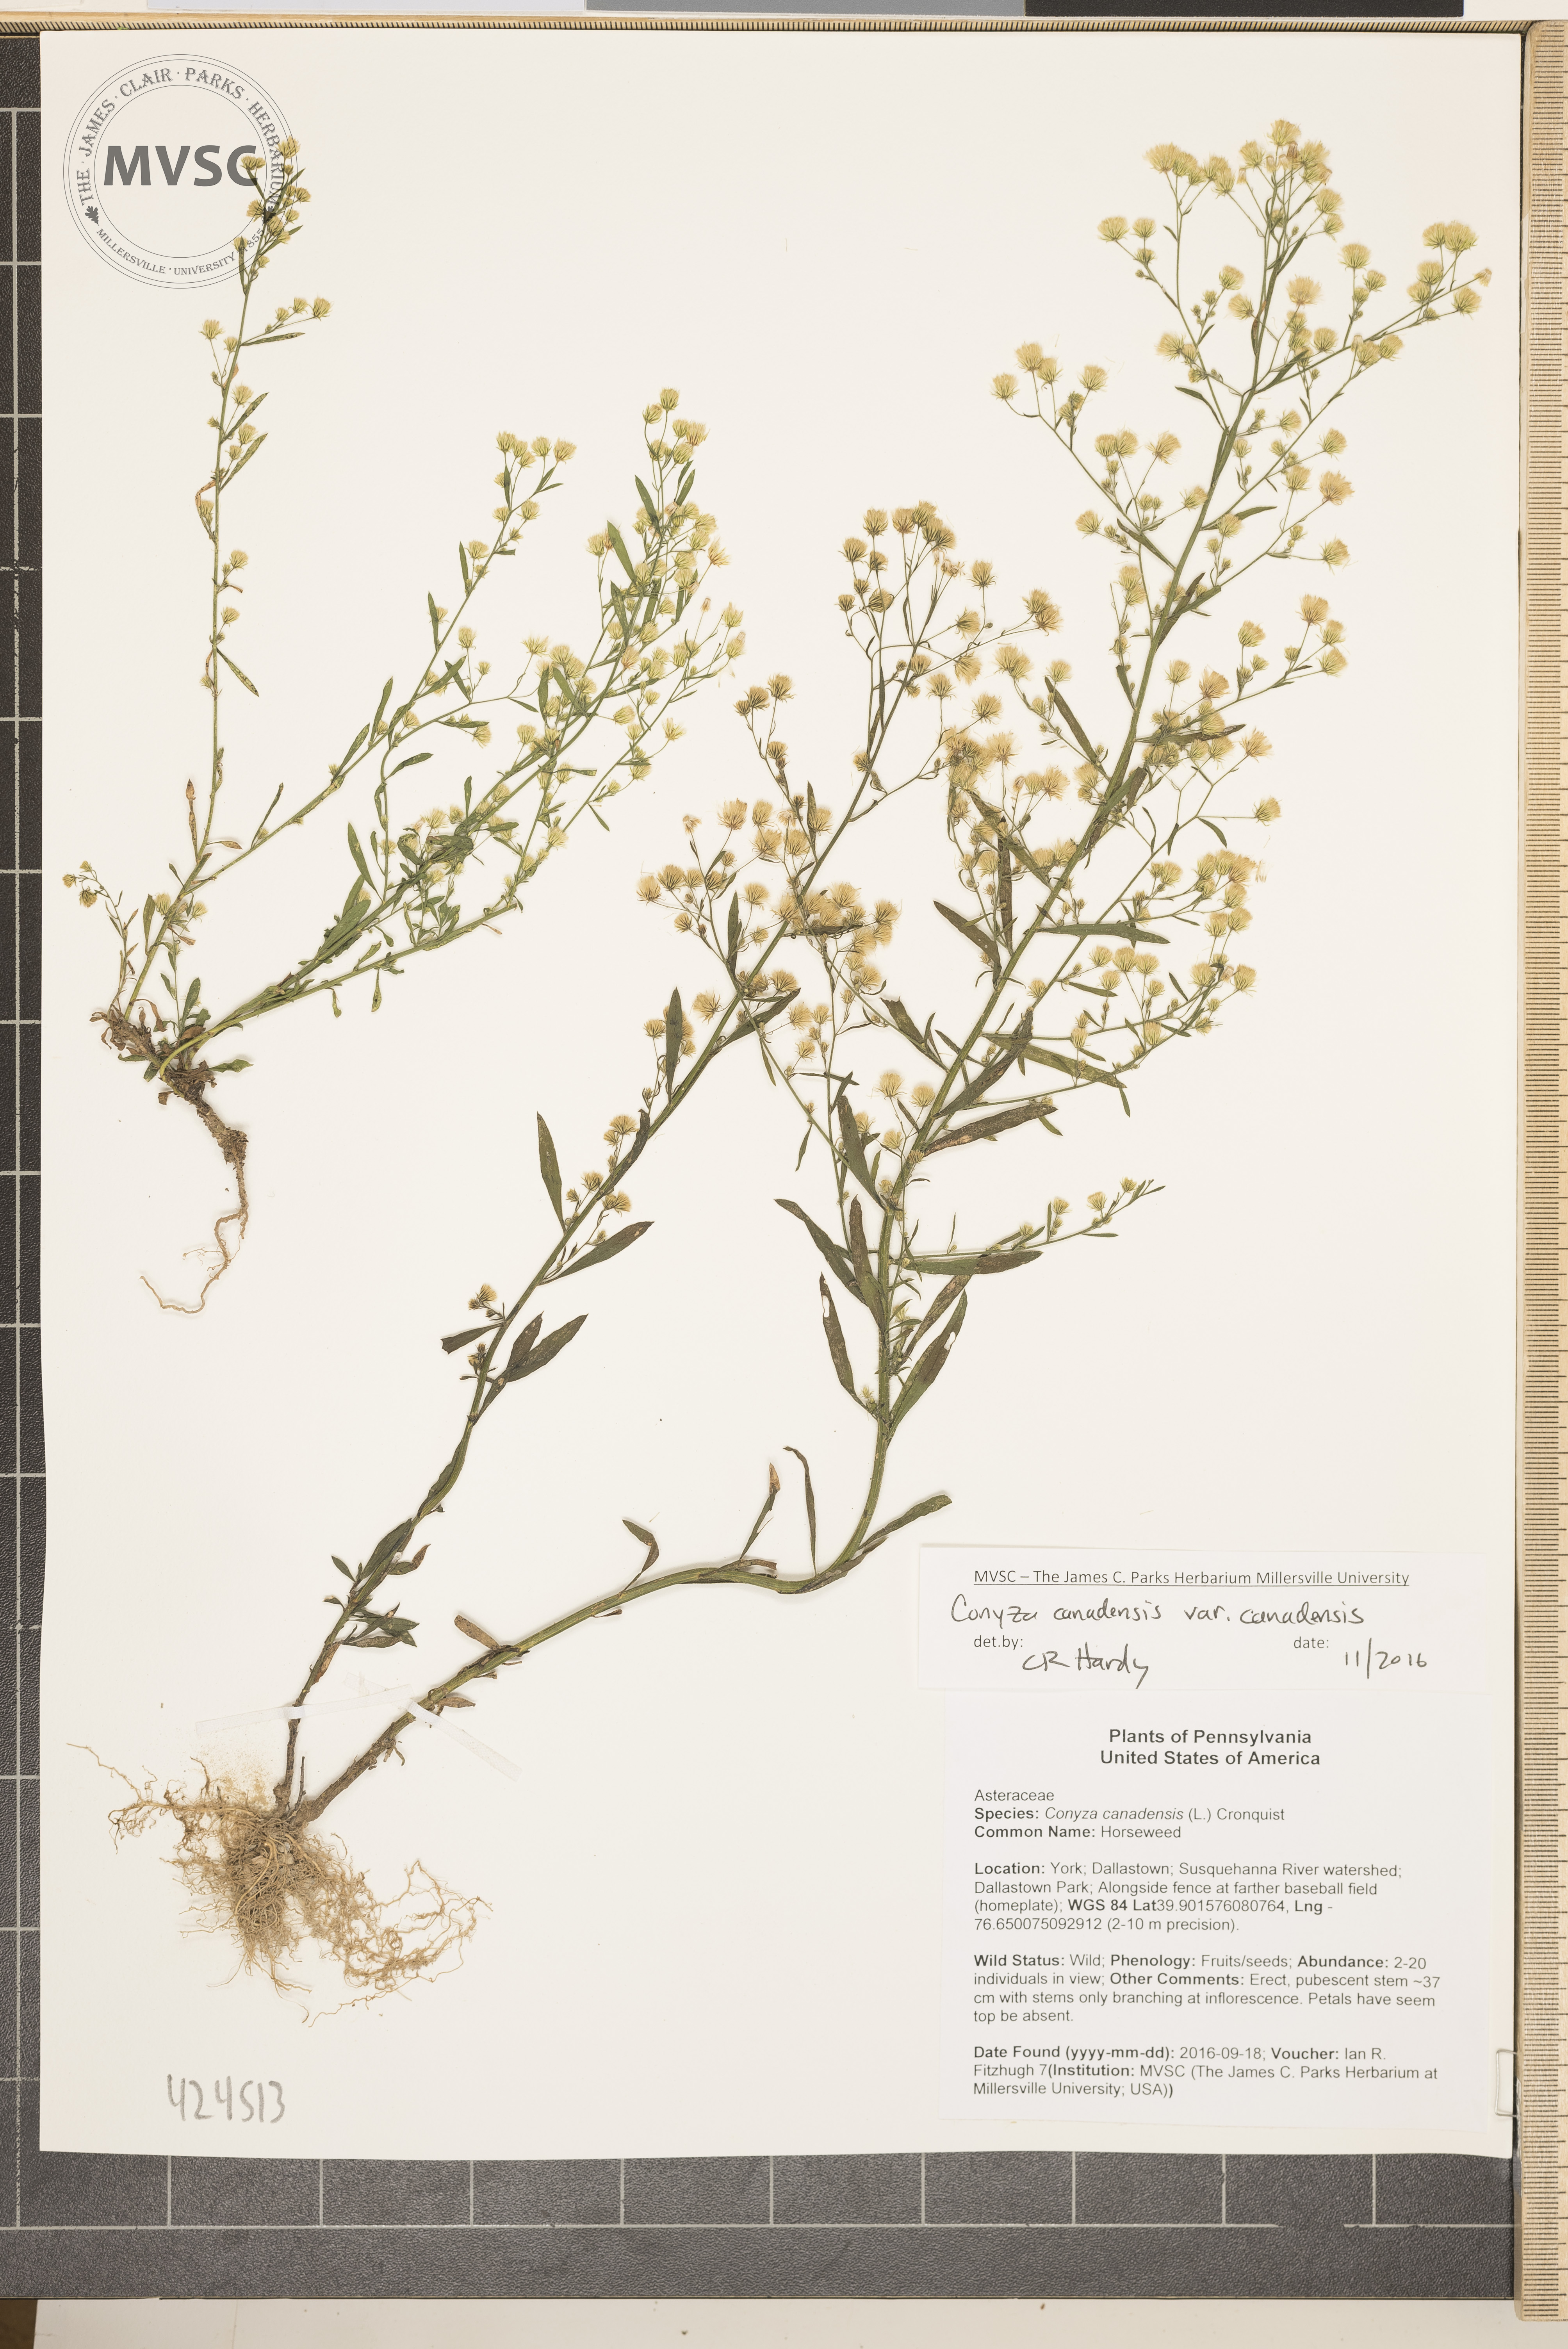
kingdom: Plantae
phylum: Tracheophyta
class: Magnoliopsida
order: Asterales
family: Asteraceae
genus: Erigeron
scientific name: Erigeron canadensis
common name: Horseweed
